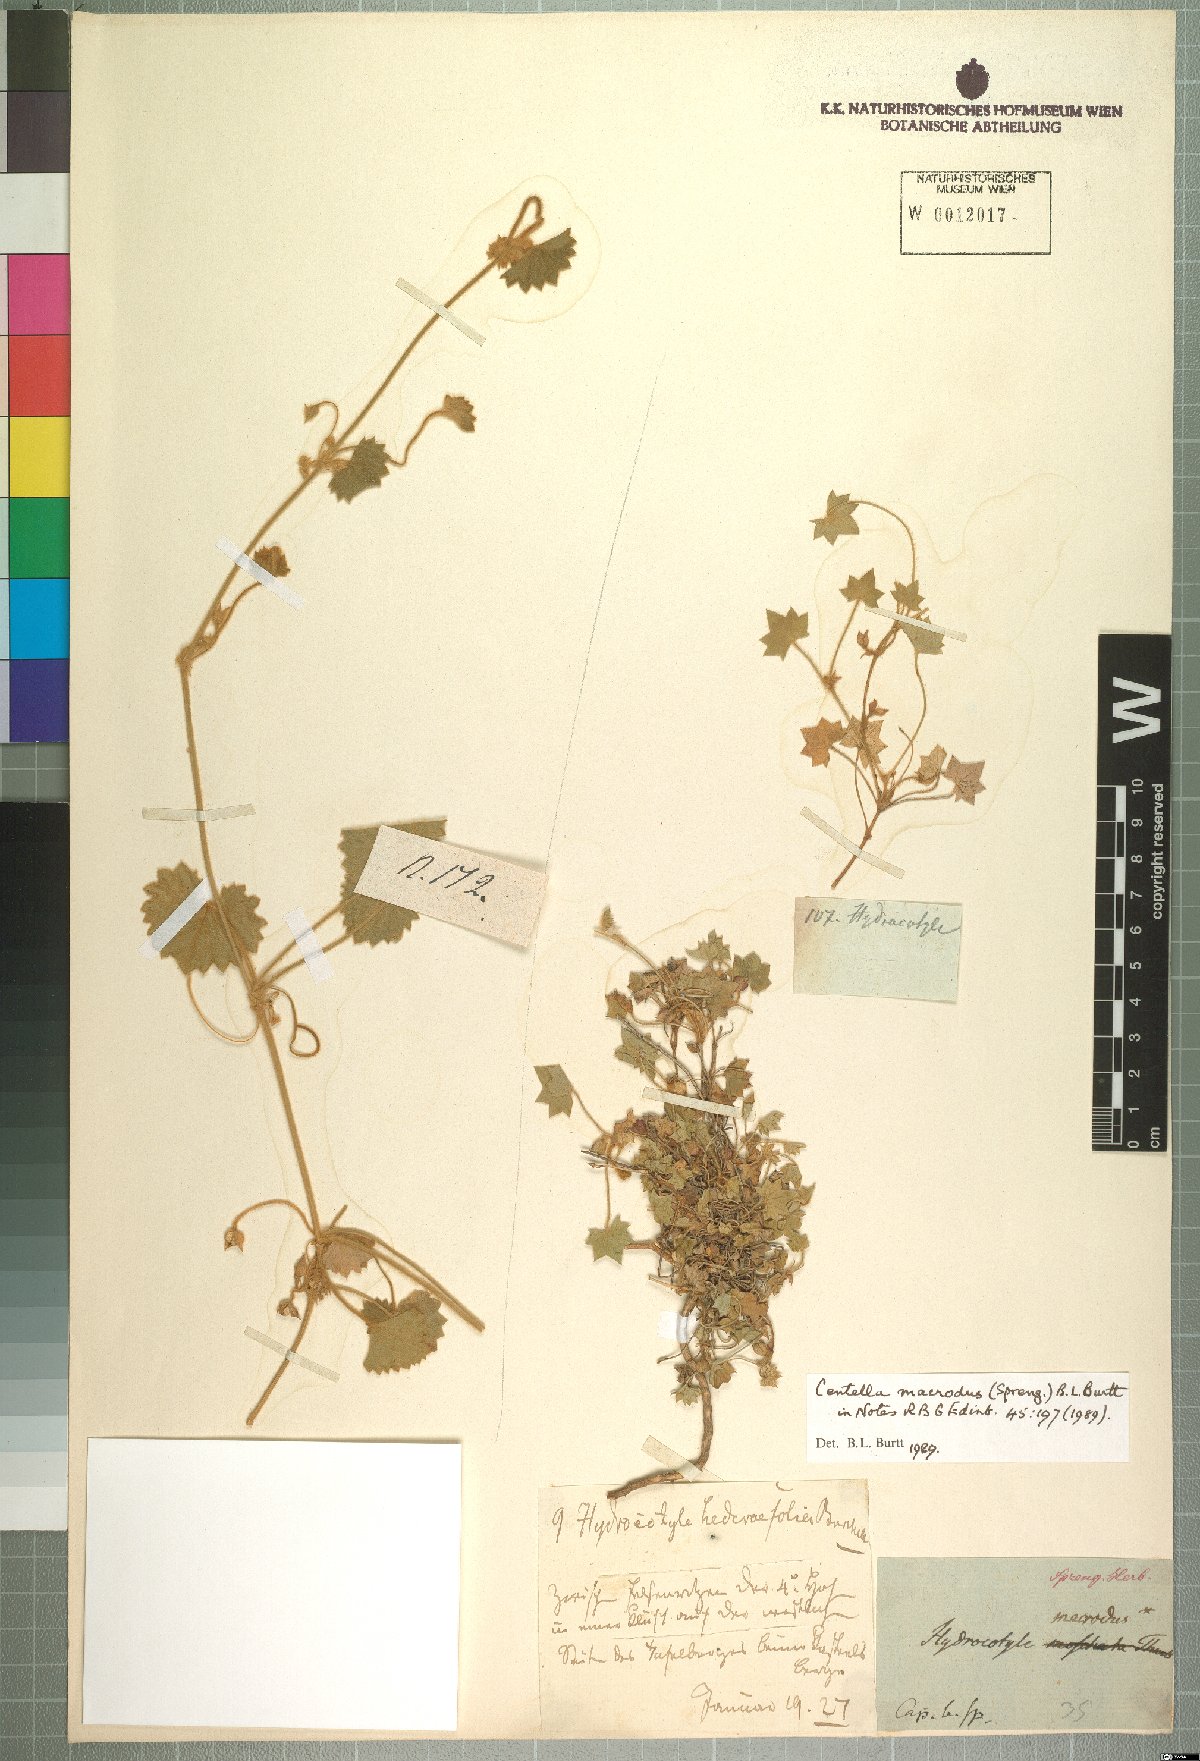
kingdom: Plantae
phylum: Tracheophyta
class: Magnoliopsida
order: Apiales
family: Apiaceae
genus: Centella
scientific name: Centella macroda
